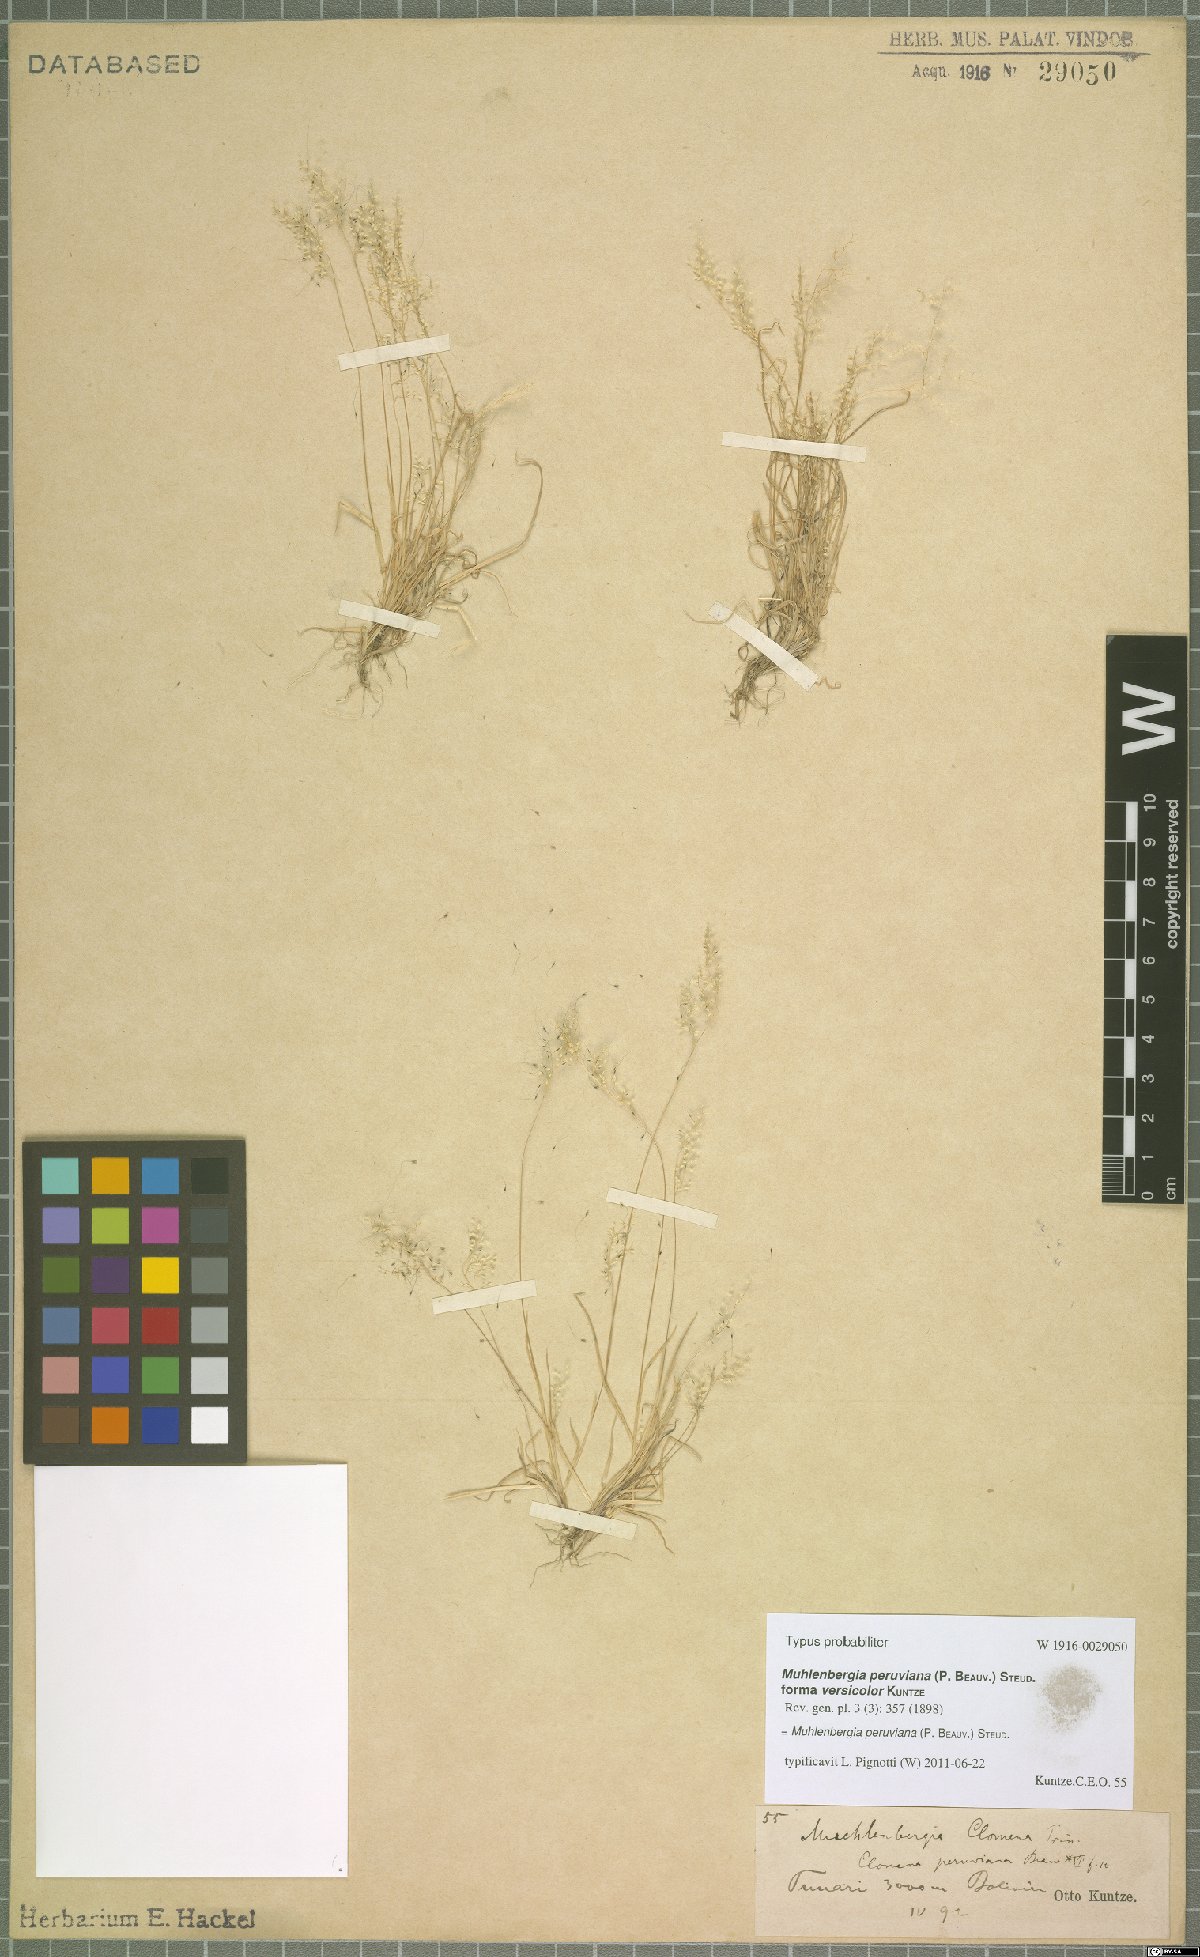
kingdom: Plantae
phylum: Tracheophyta
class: Liliopsida
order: Poales
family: Poaceae
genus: Muhlenbergia
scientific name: Muhlenbergia peruviana
